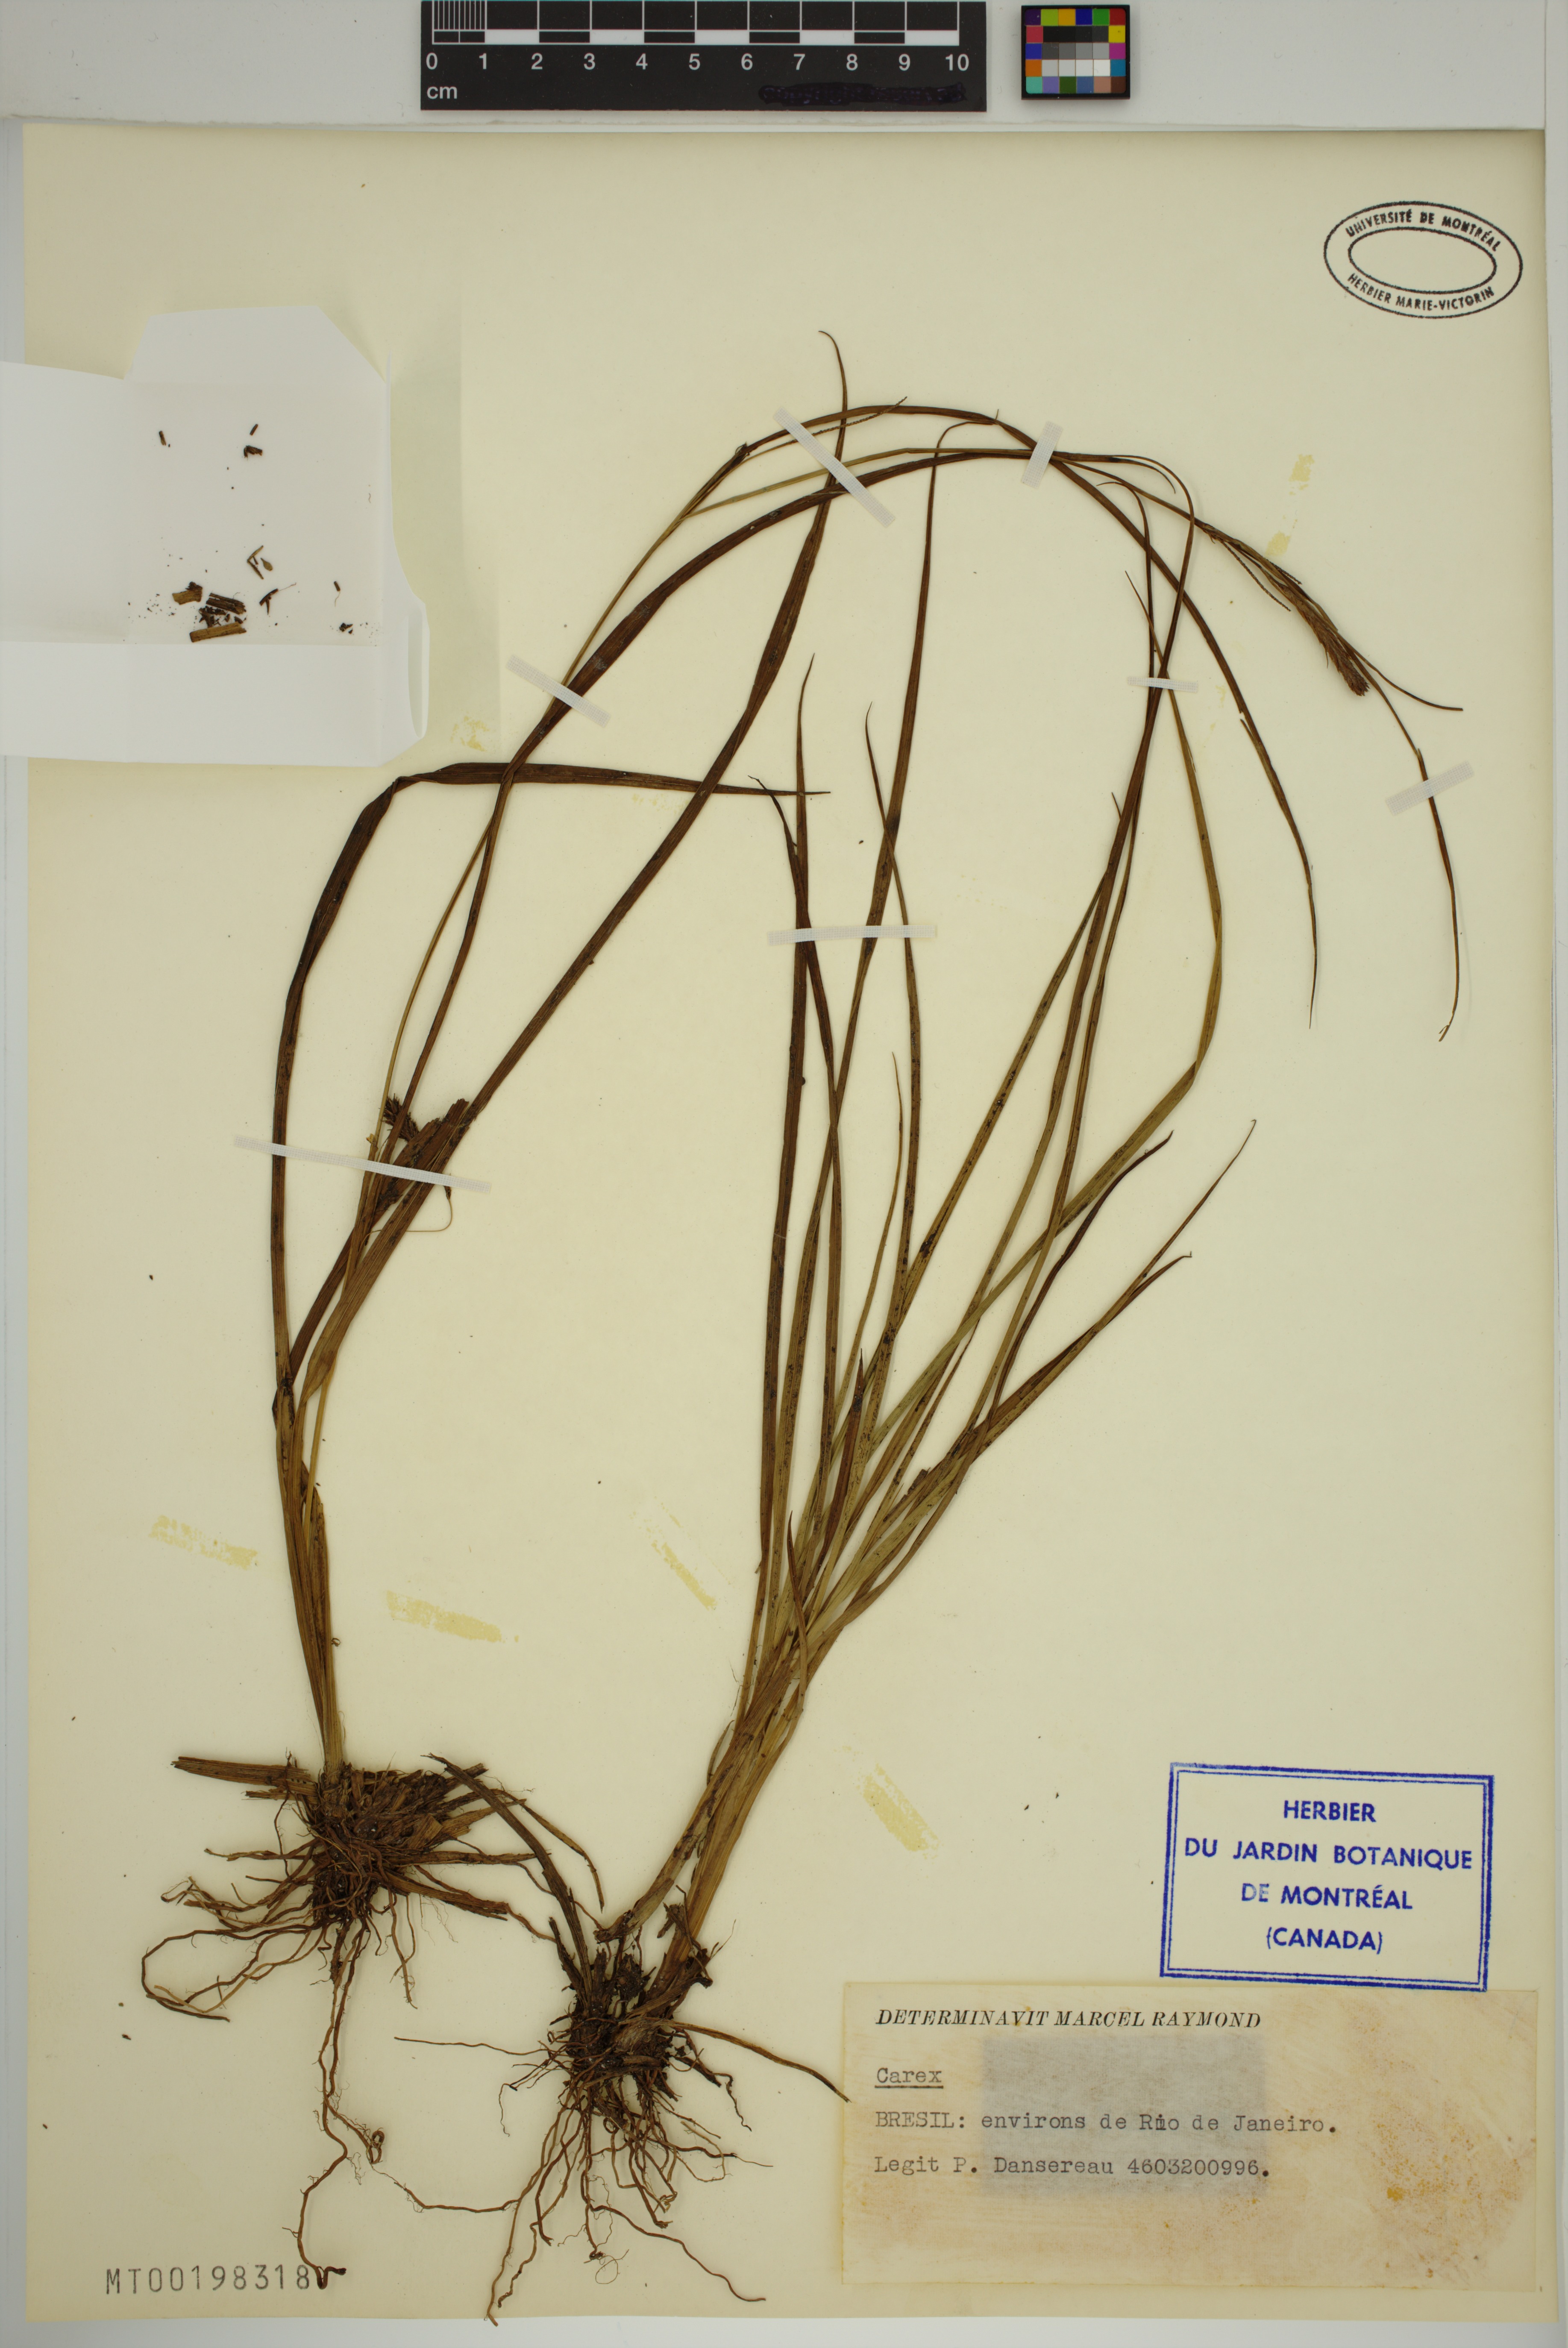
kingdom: Plantae
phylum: Tracheophyta
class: Liliopsida
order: Poales
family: Cyperaceae
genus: Carex
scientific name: Carex
